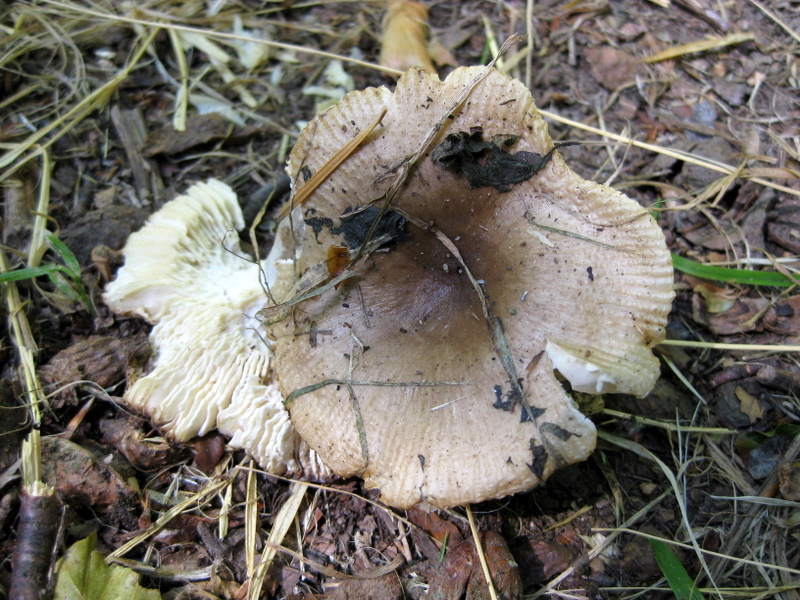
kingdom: Fungi
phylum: Basidiomycota
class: Agaricomycetes
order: Russulales
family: Russulaceae
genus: Russula
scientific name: Russula recondita
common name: mild kam-skørhat
